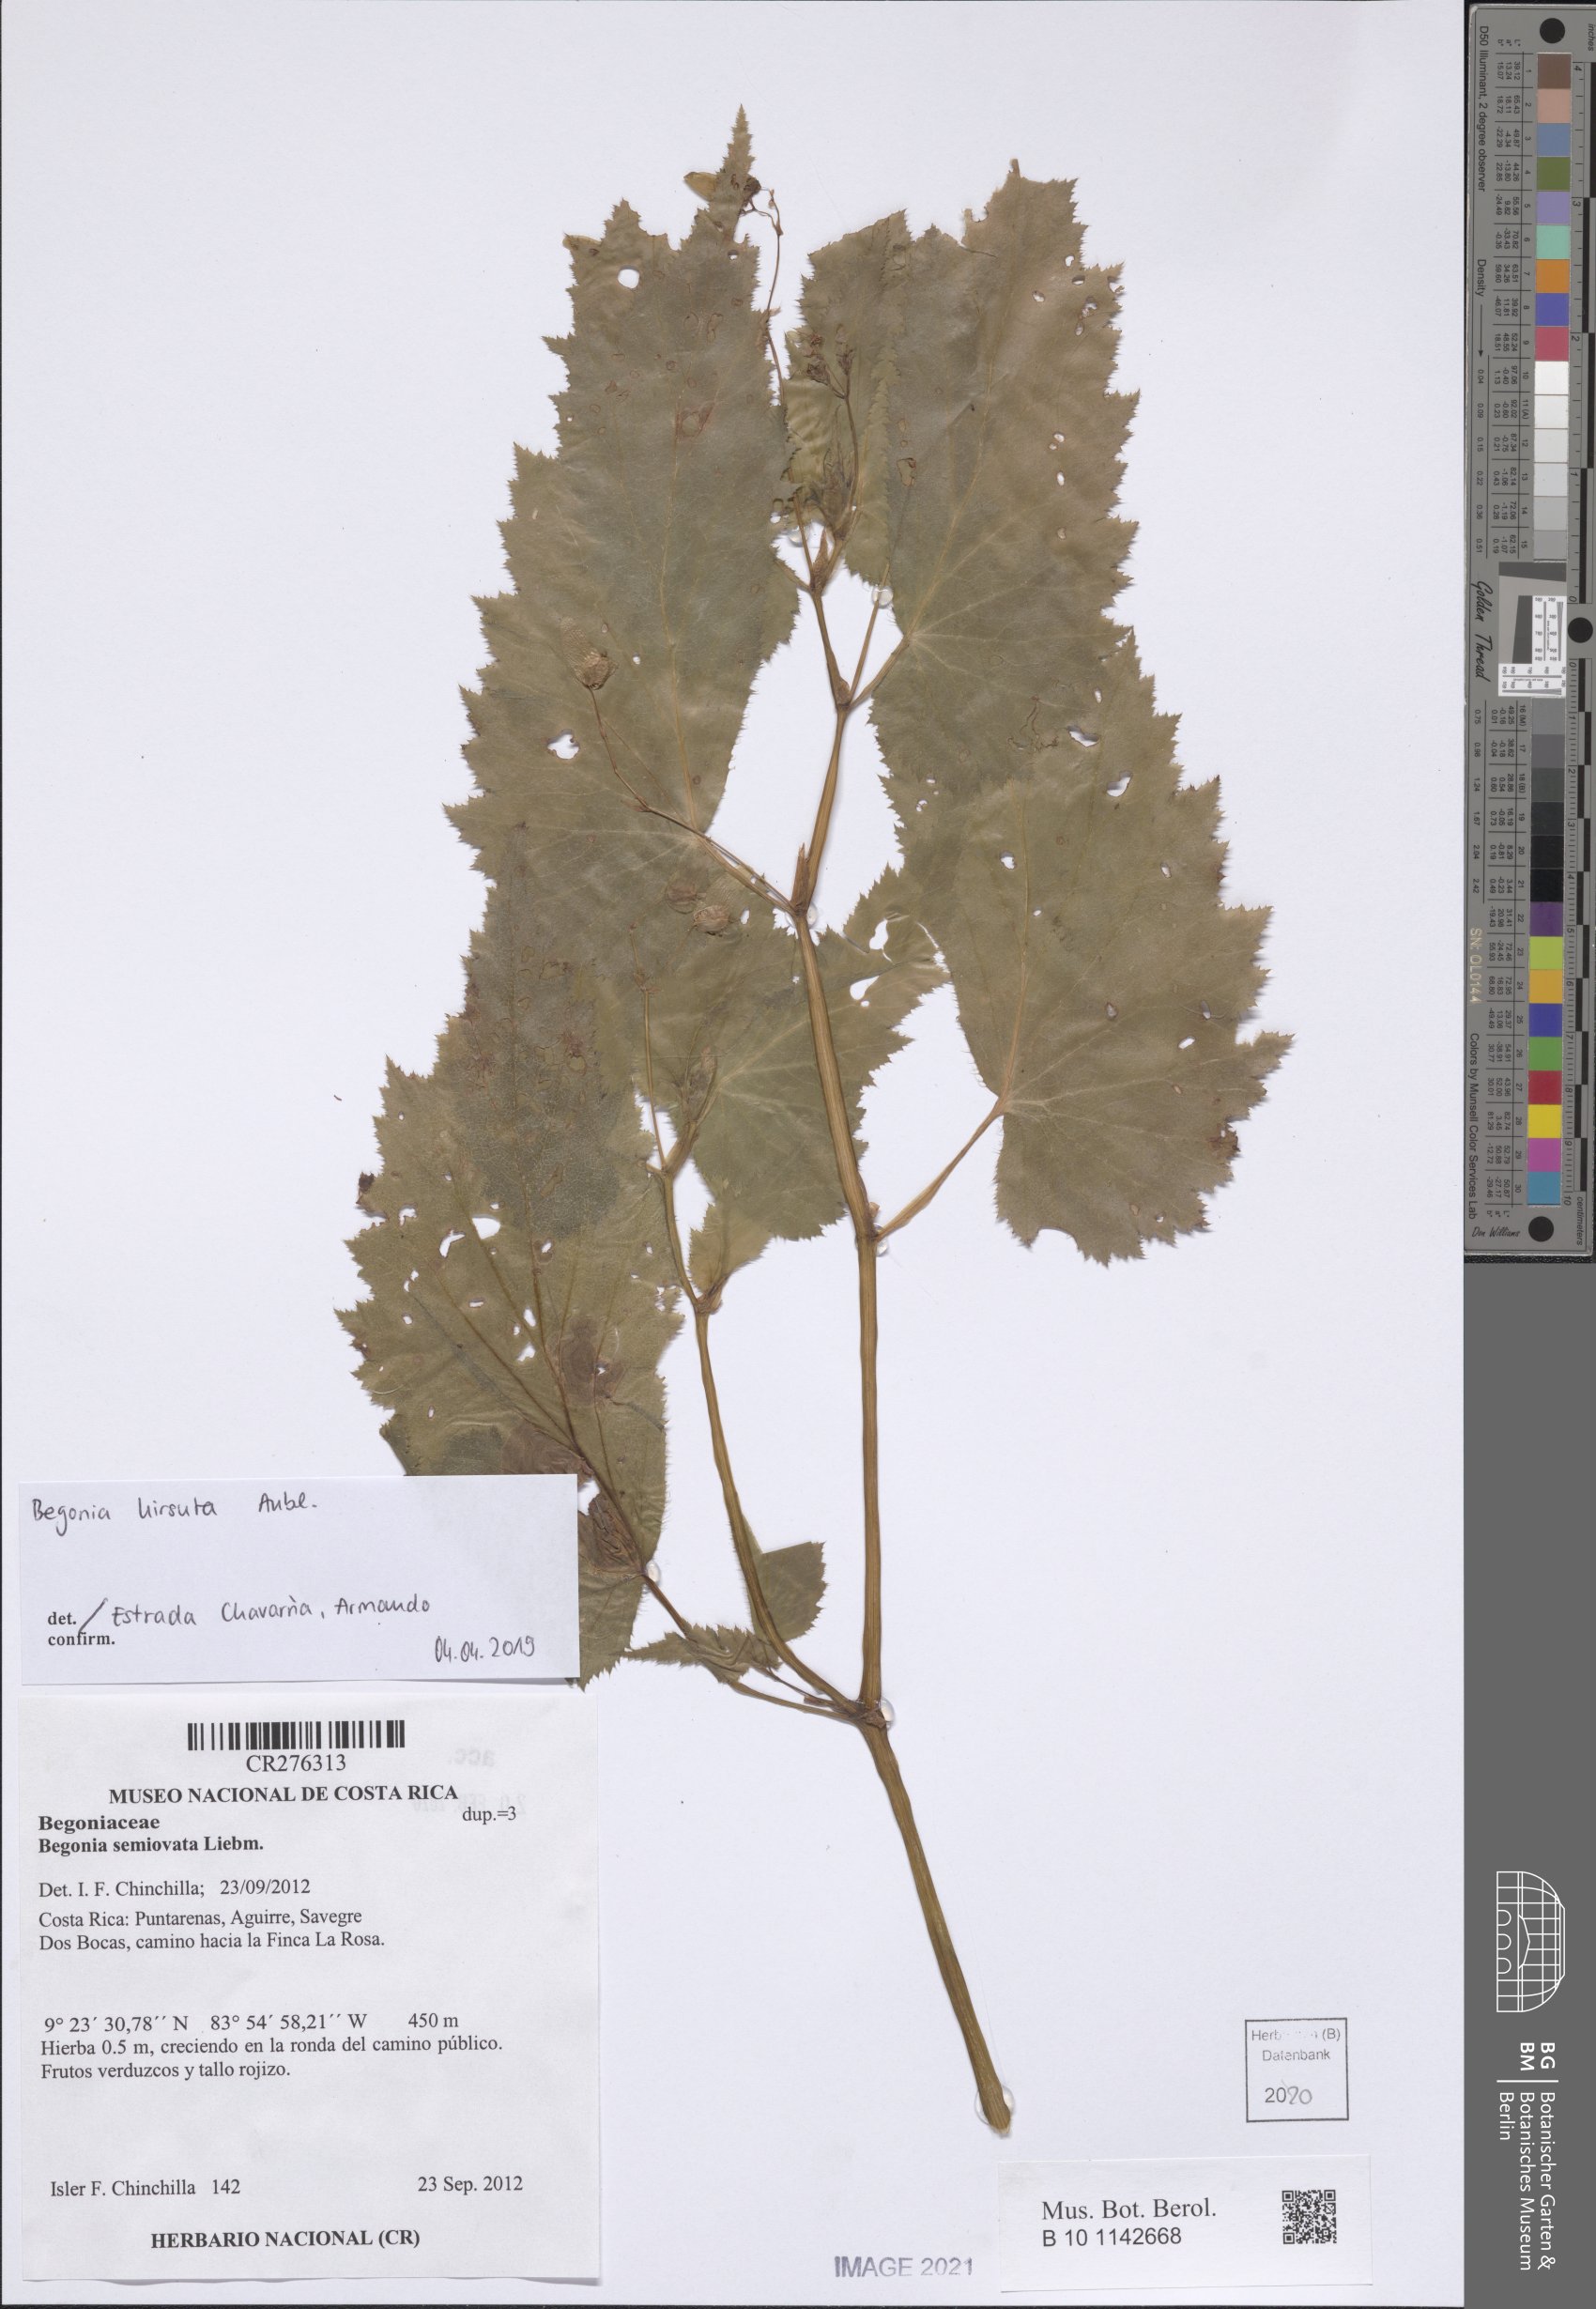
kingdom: Plantae
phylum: Tracheophyta
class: Magnoliopsida
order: Cucurbitales
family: Begoniaceae
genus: Begonia
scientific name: Begonia hirsuta
